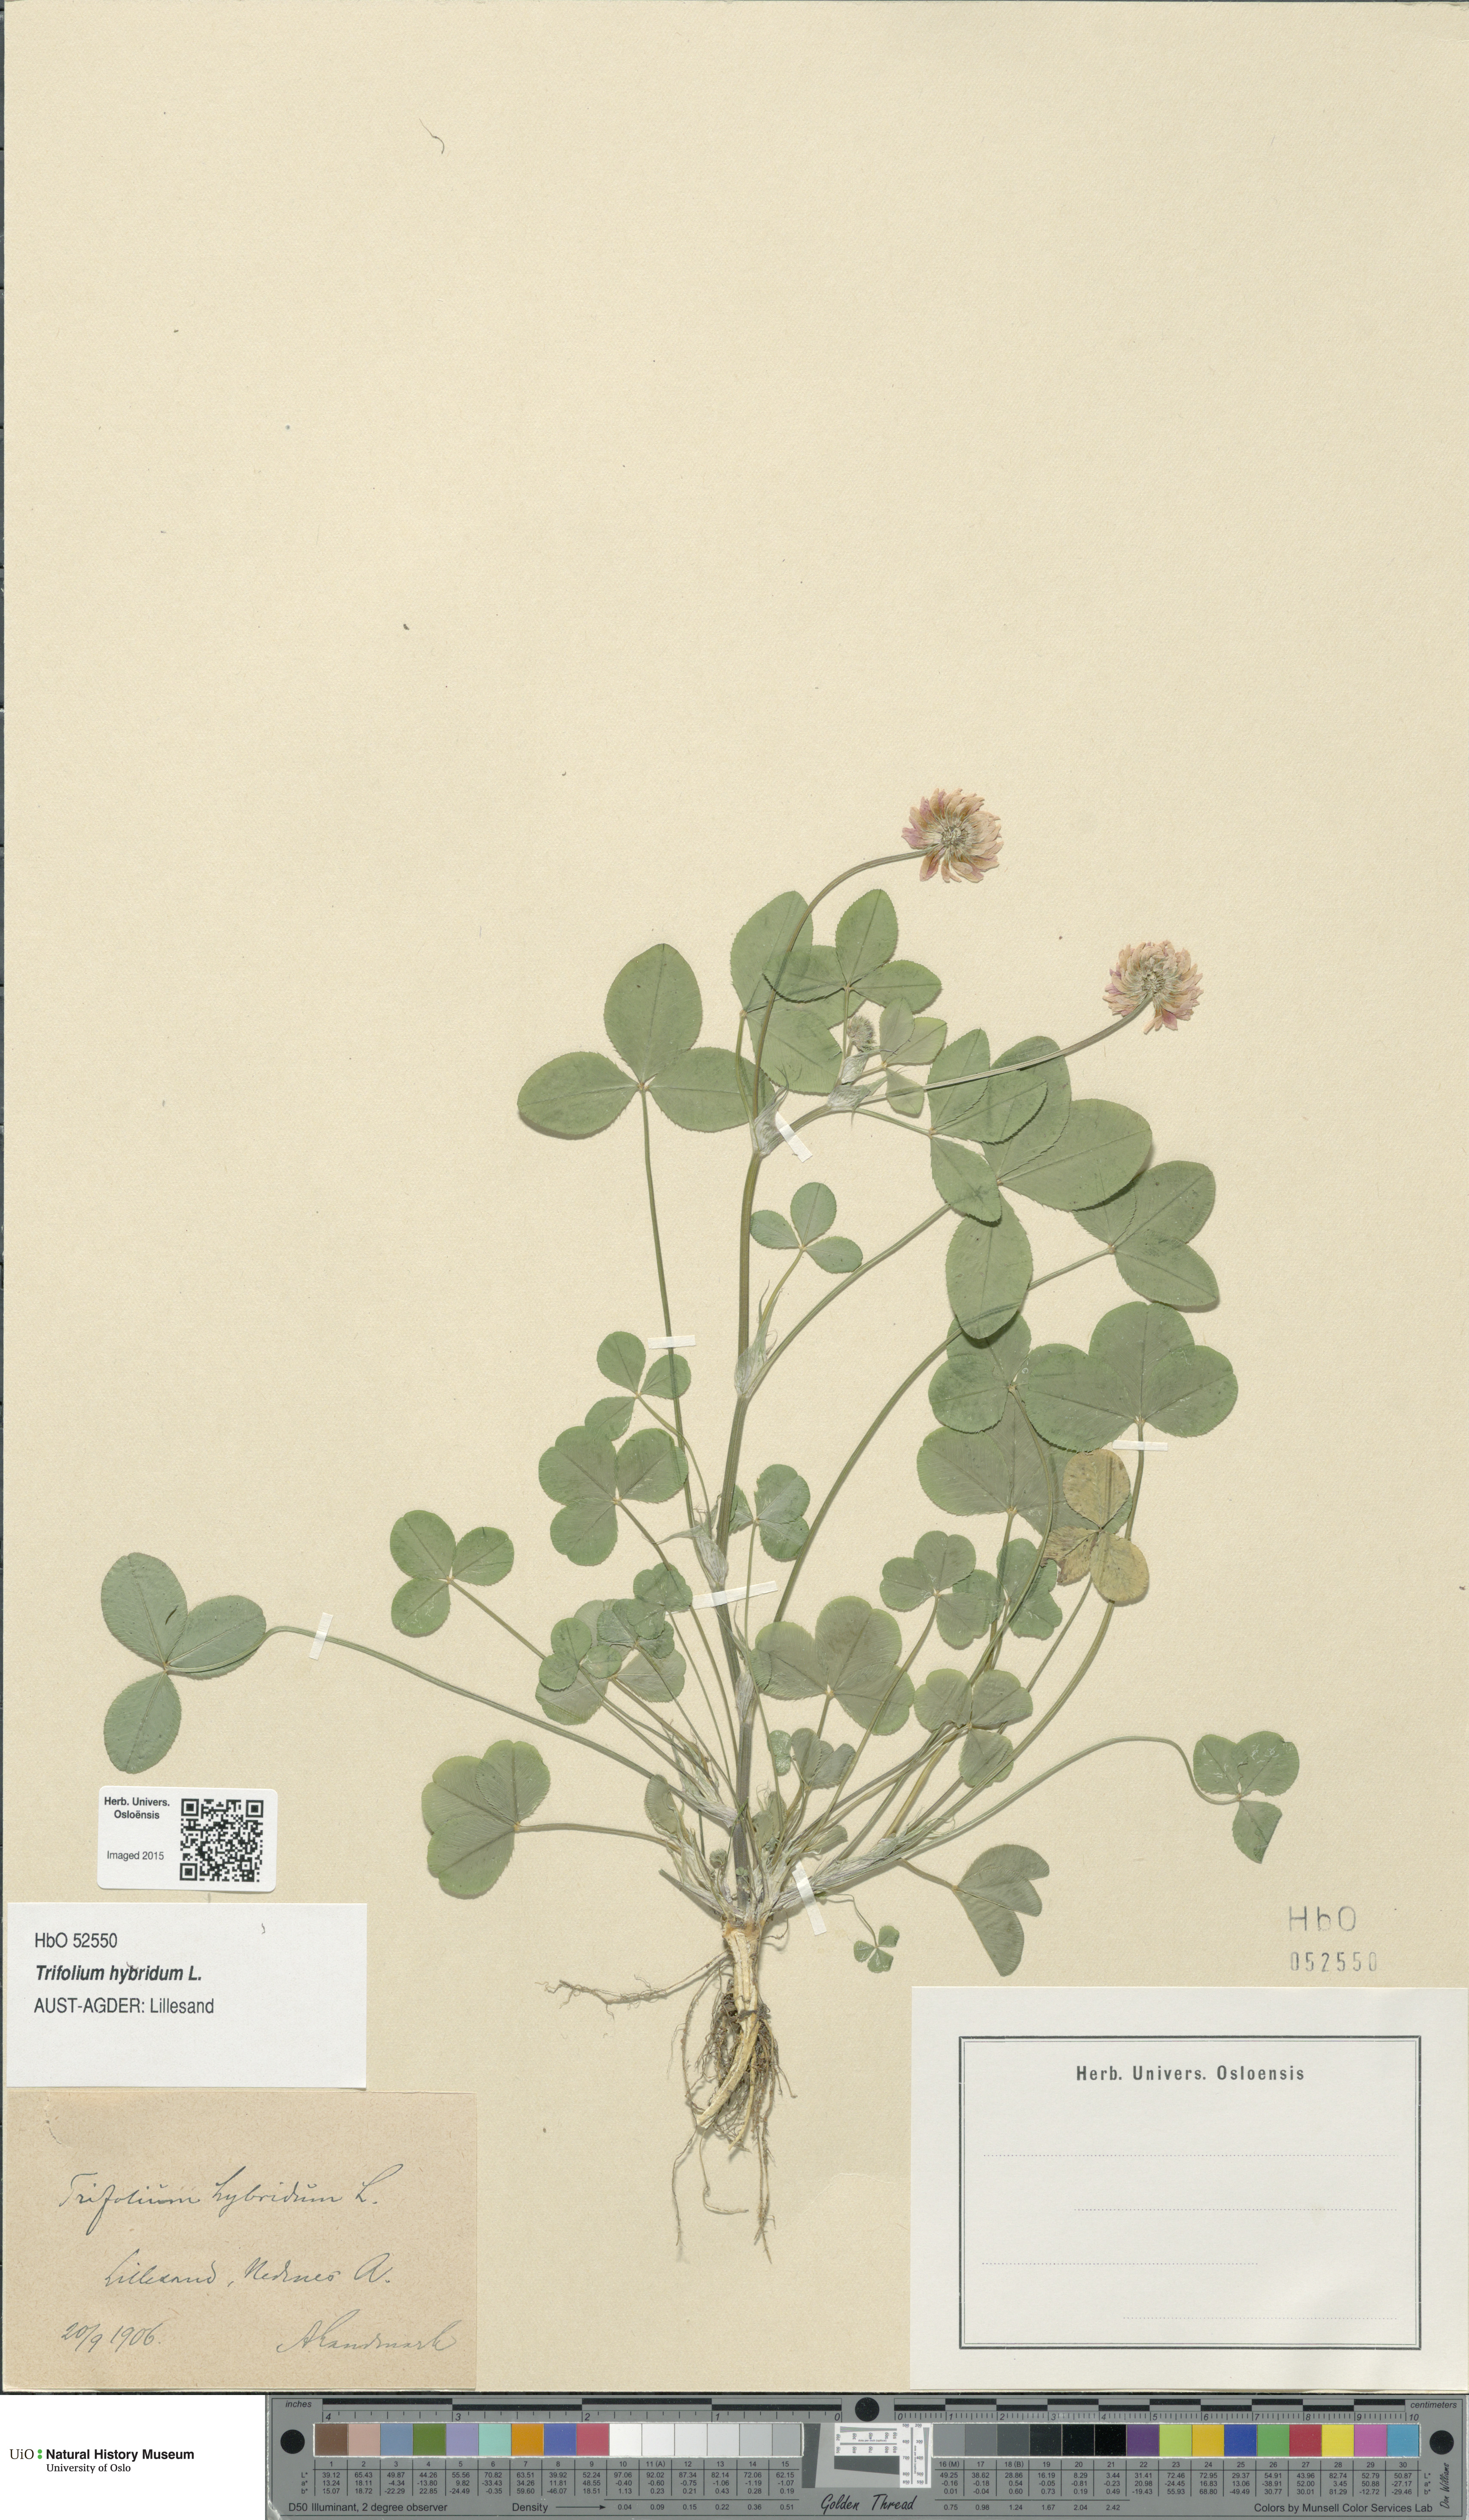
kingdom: Plantae
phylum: Tracheophyta
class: Magnoliopsida
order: Fabales
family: Fabaceae
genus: Trifolium
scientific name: Trifolium hybridum
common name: Alsike clover
